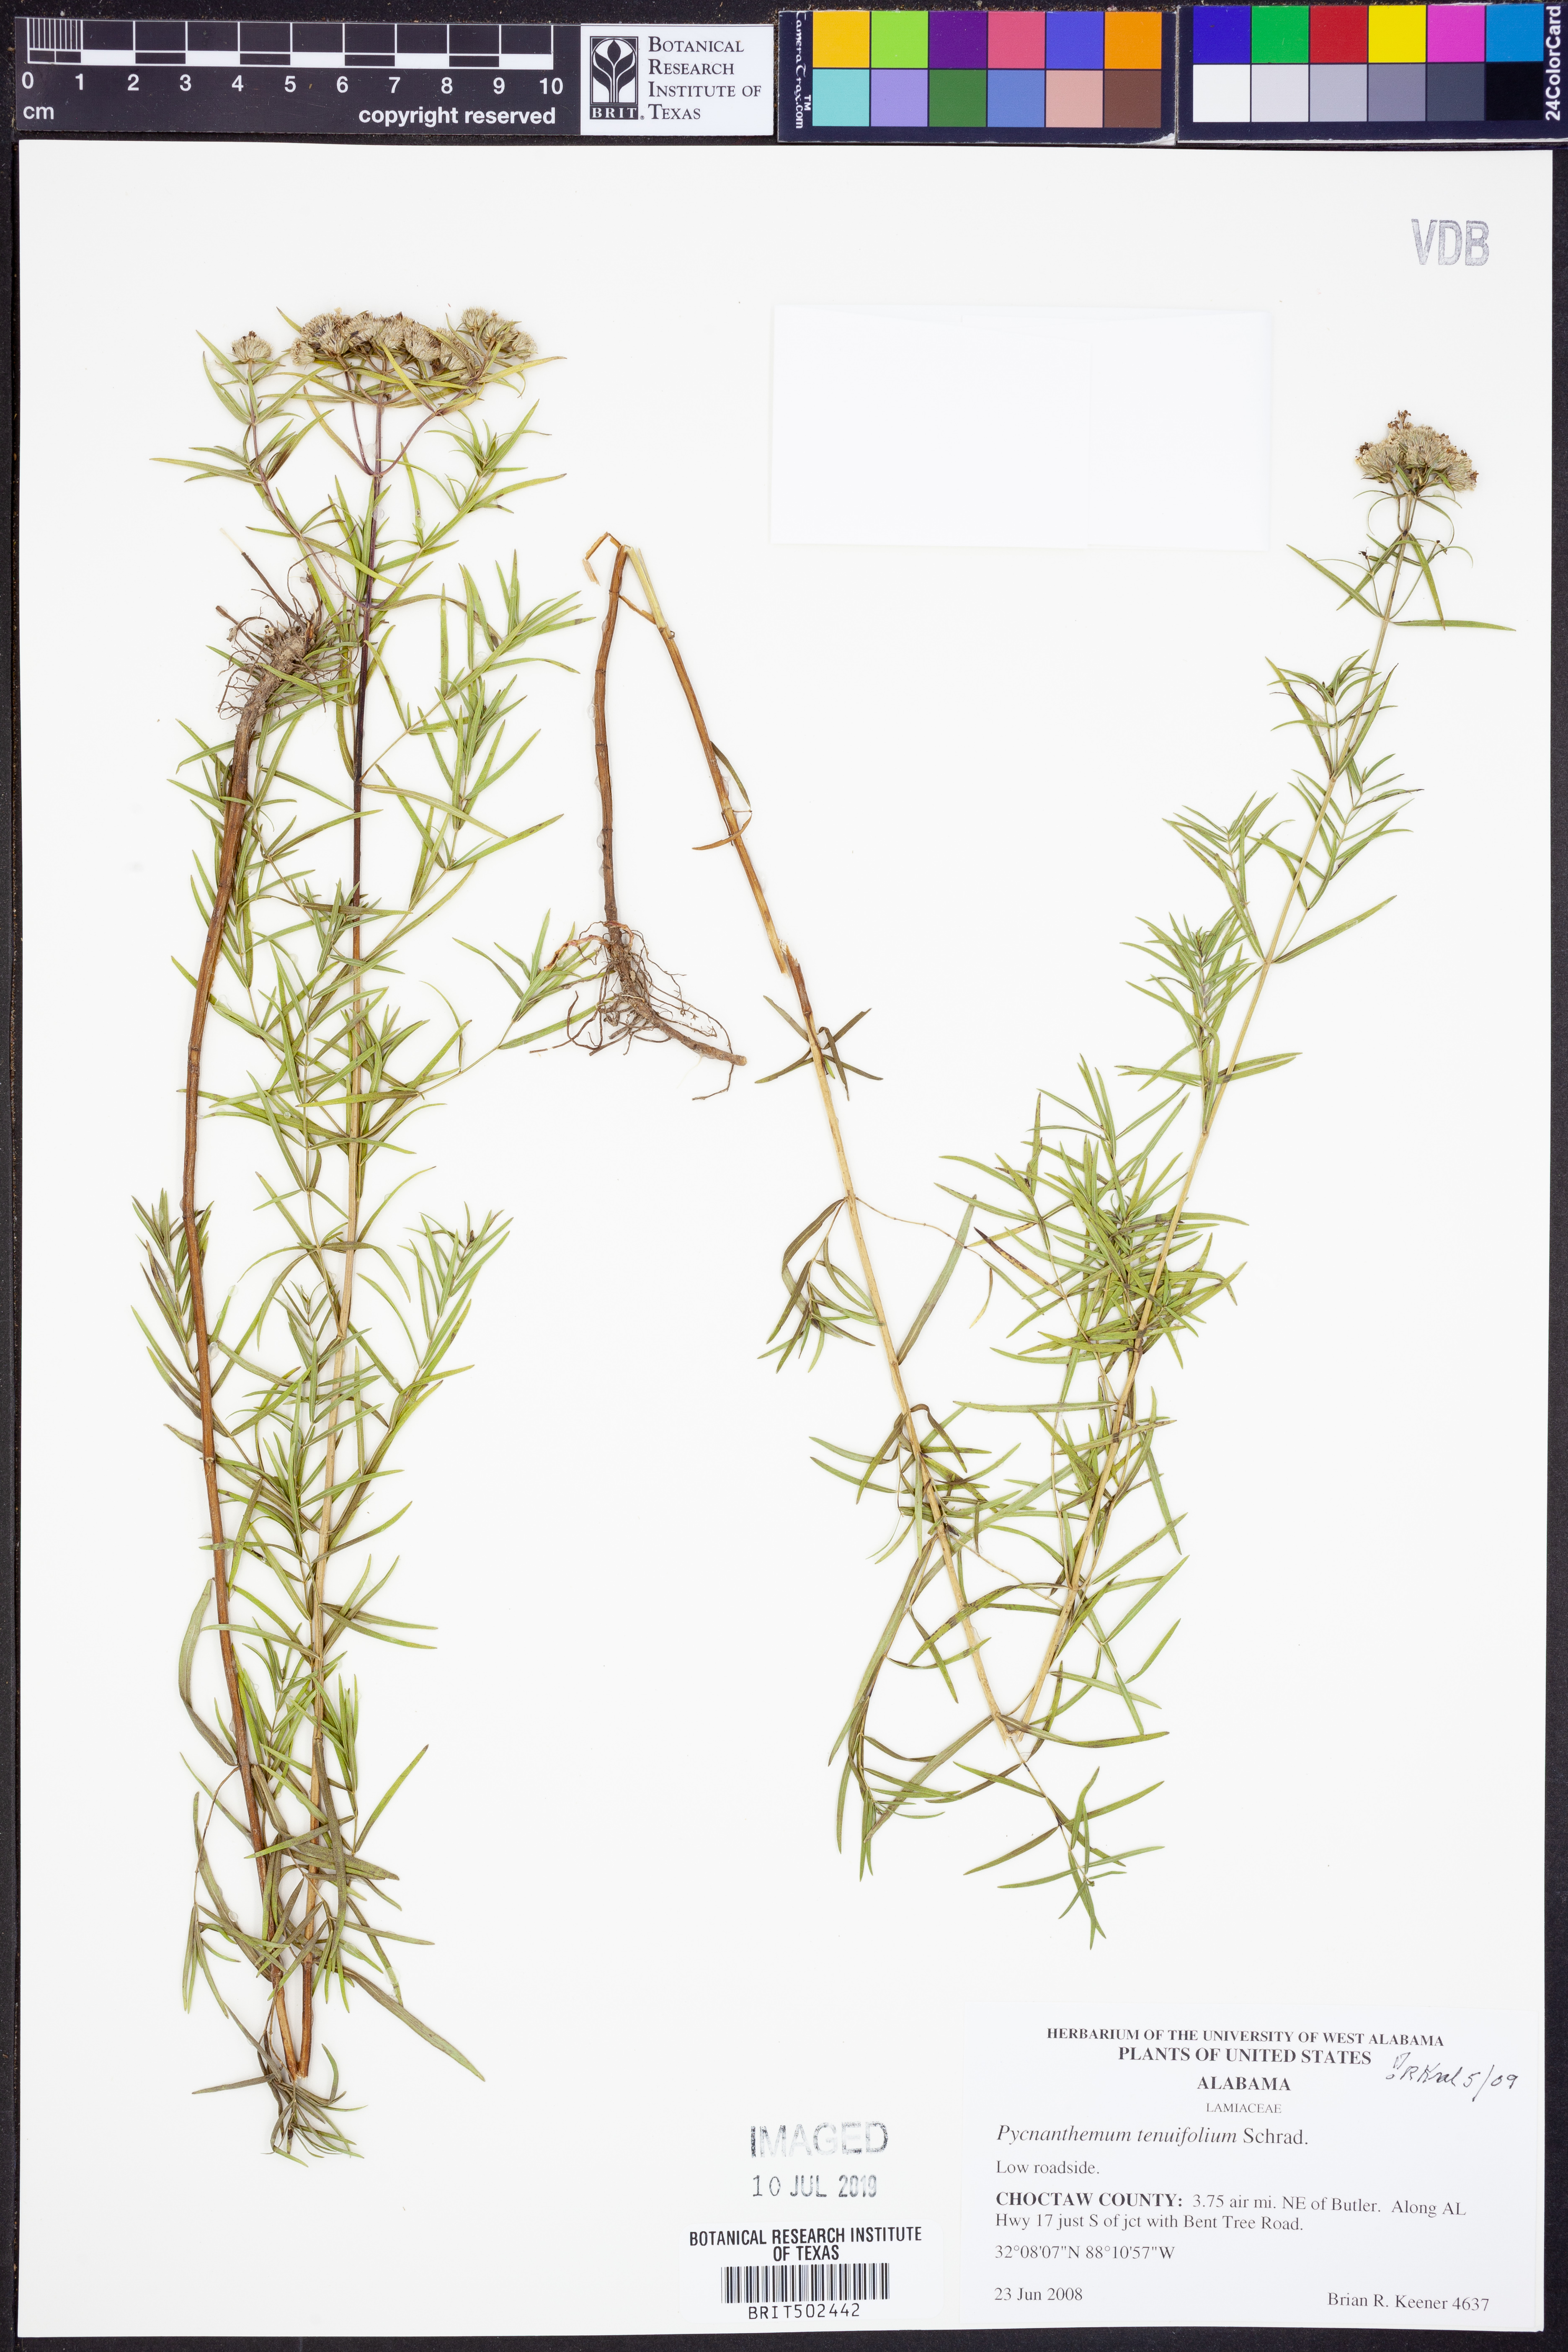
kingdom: Plantae
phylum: Tracheophyta
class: Magnoliopsida
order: Lamiales
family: Lamiaceae
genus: Pycnanthemum
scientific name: Pycnanthemum tenuifolium
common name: Narrow-leaf mountain-mint
